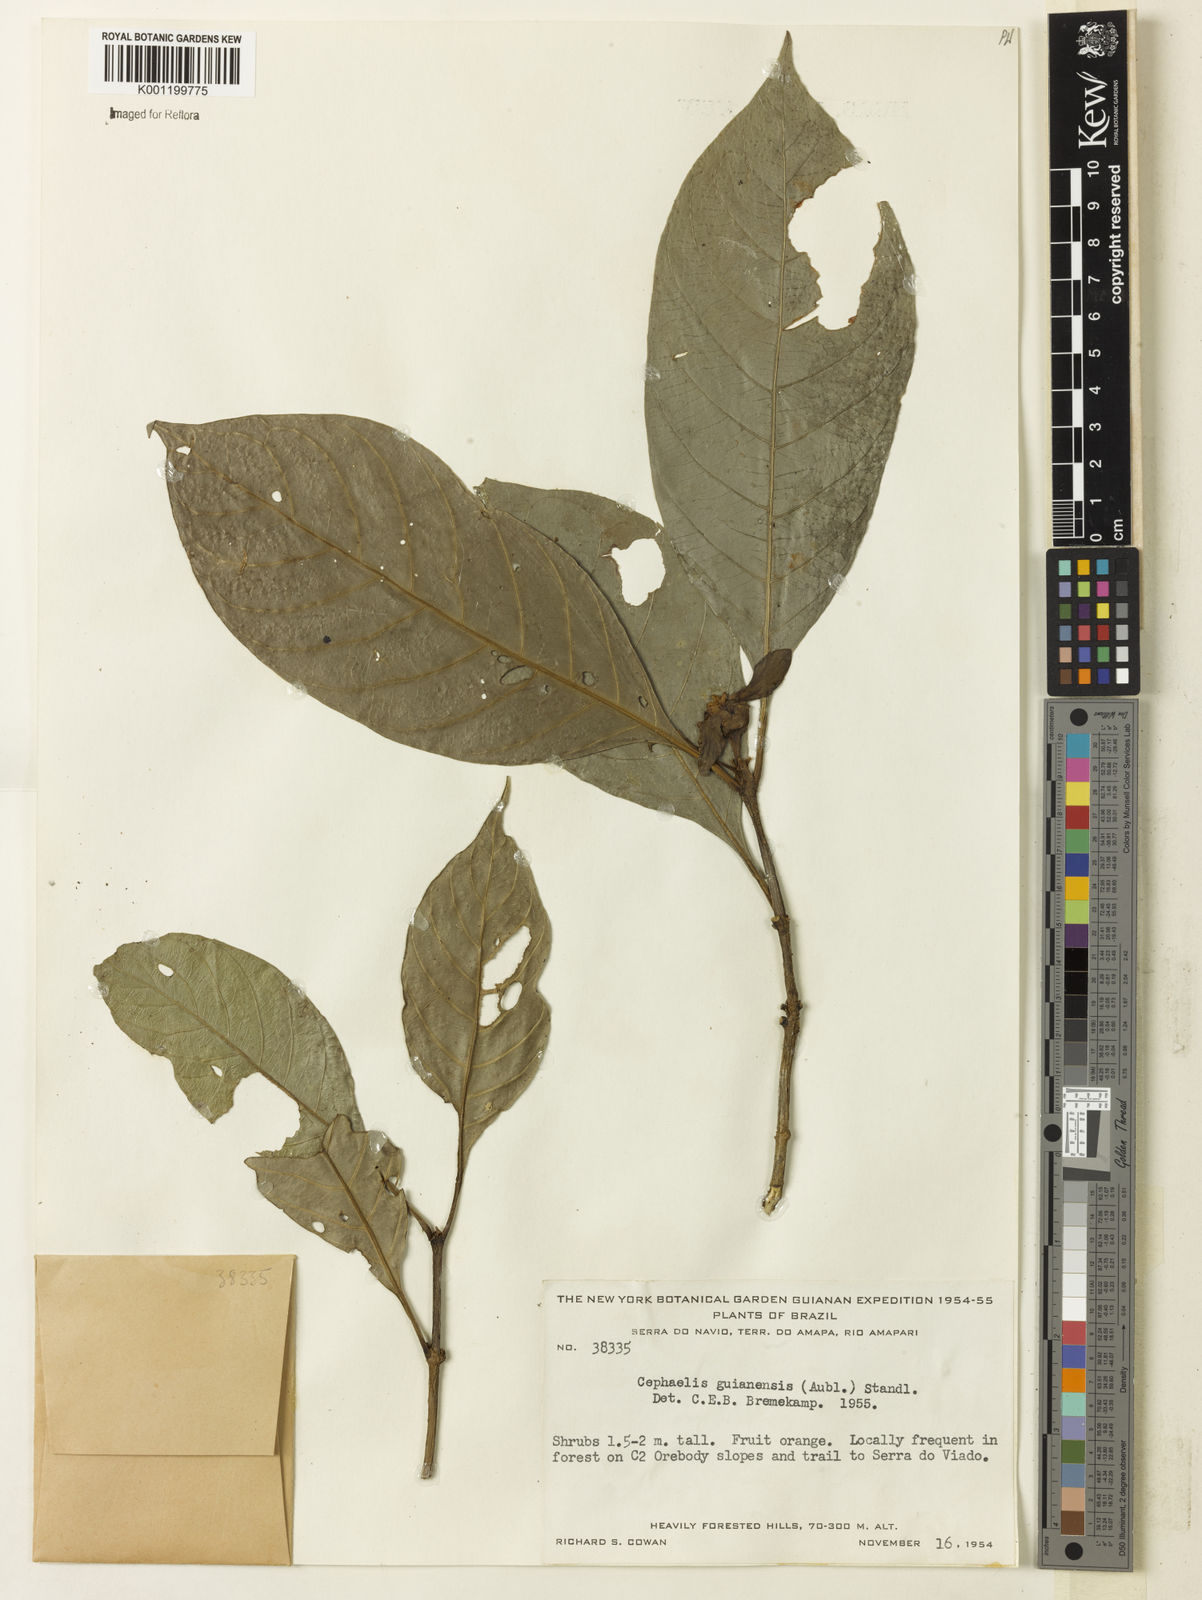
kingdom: Plantae
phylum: Tracheophyta
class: Magnoliopsida
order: Gentianales
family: Rubiaceae
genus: Carapichea
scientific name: Carapichea guianensis
